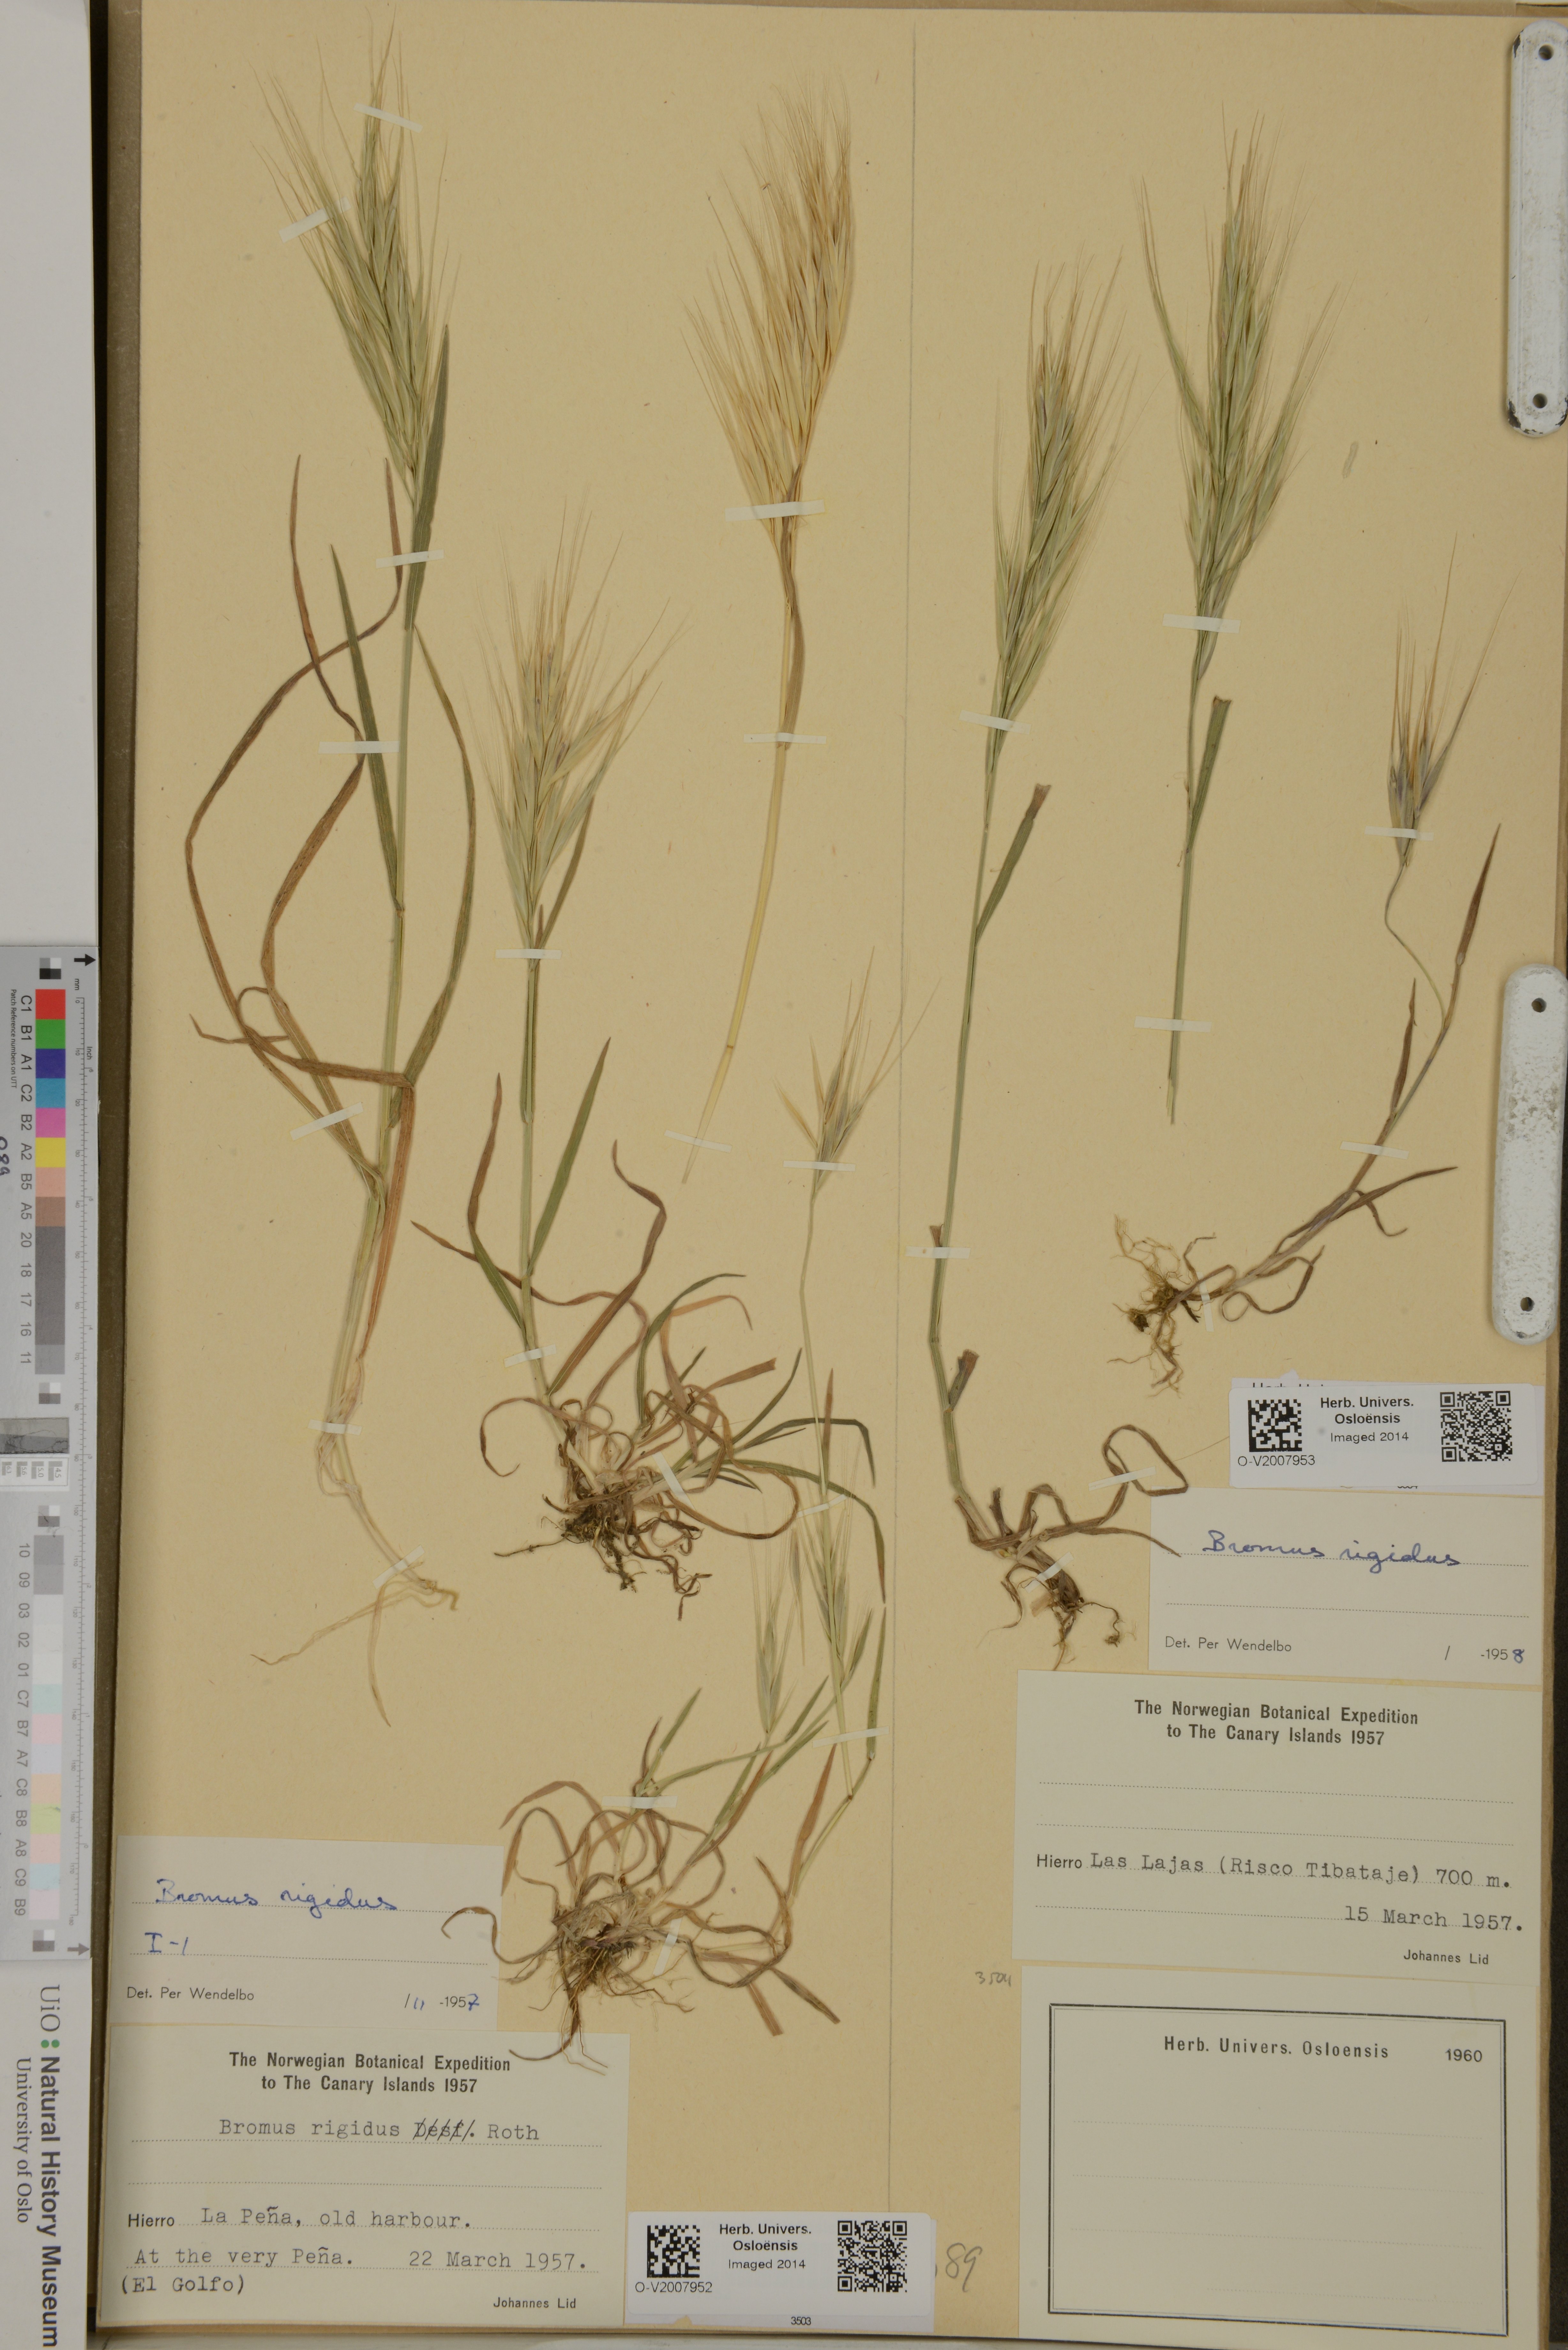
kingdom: Plantae
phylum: Tracheophyta
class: Liliopsida
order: Poales
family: Poaceae
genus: Bromus
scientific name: Bromus rigidus
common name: Ripgut brome
